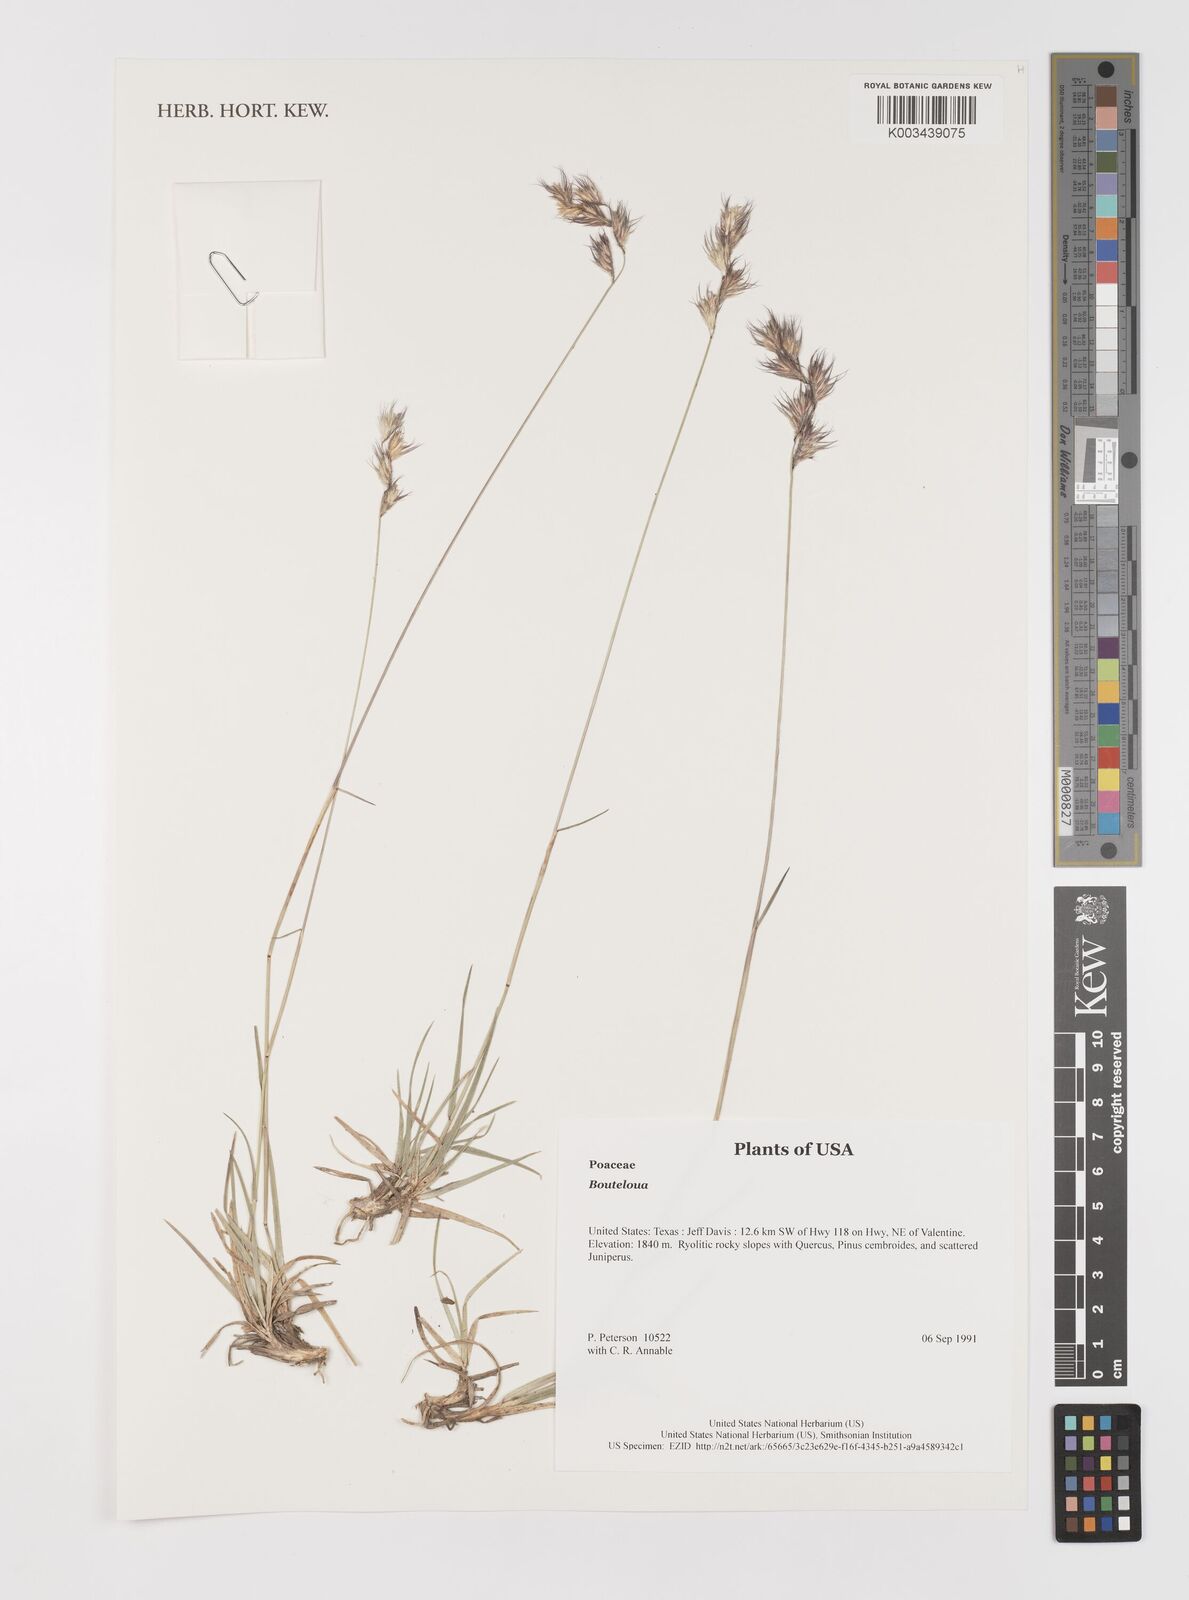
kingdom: Plantae
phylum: Tracheophyta
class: Liliopsida
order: Poales
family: Poaceae
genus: Bouteloua
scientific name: Bouteloua
